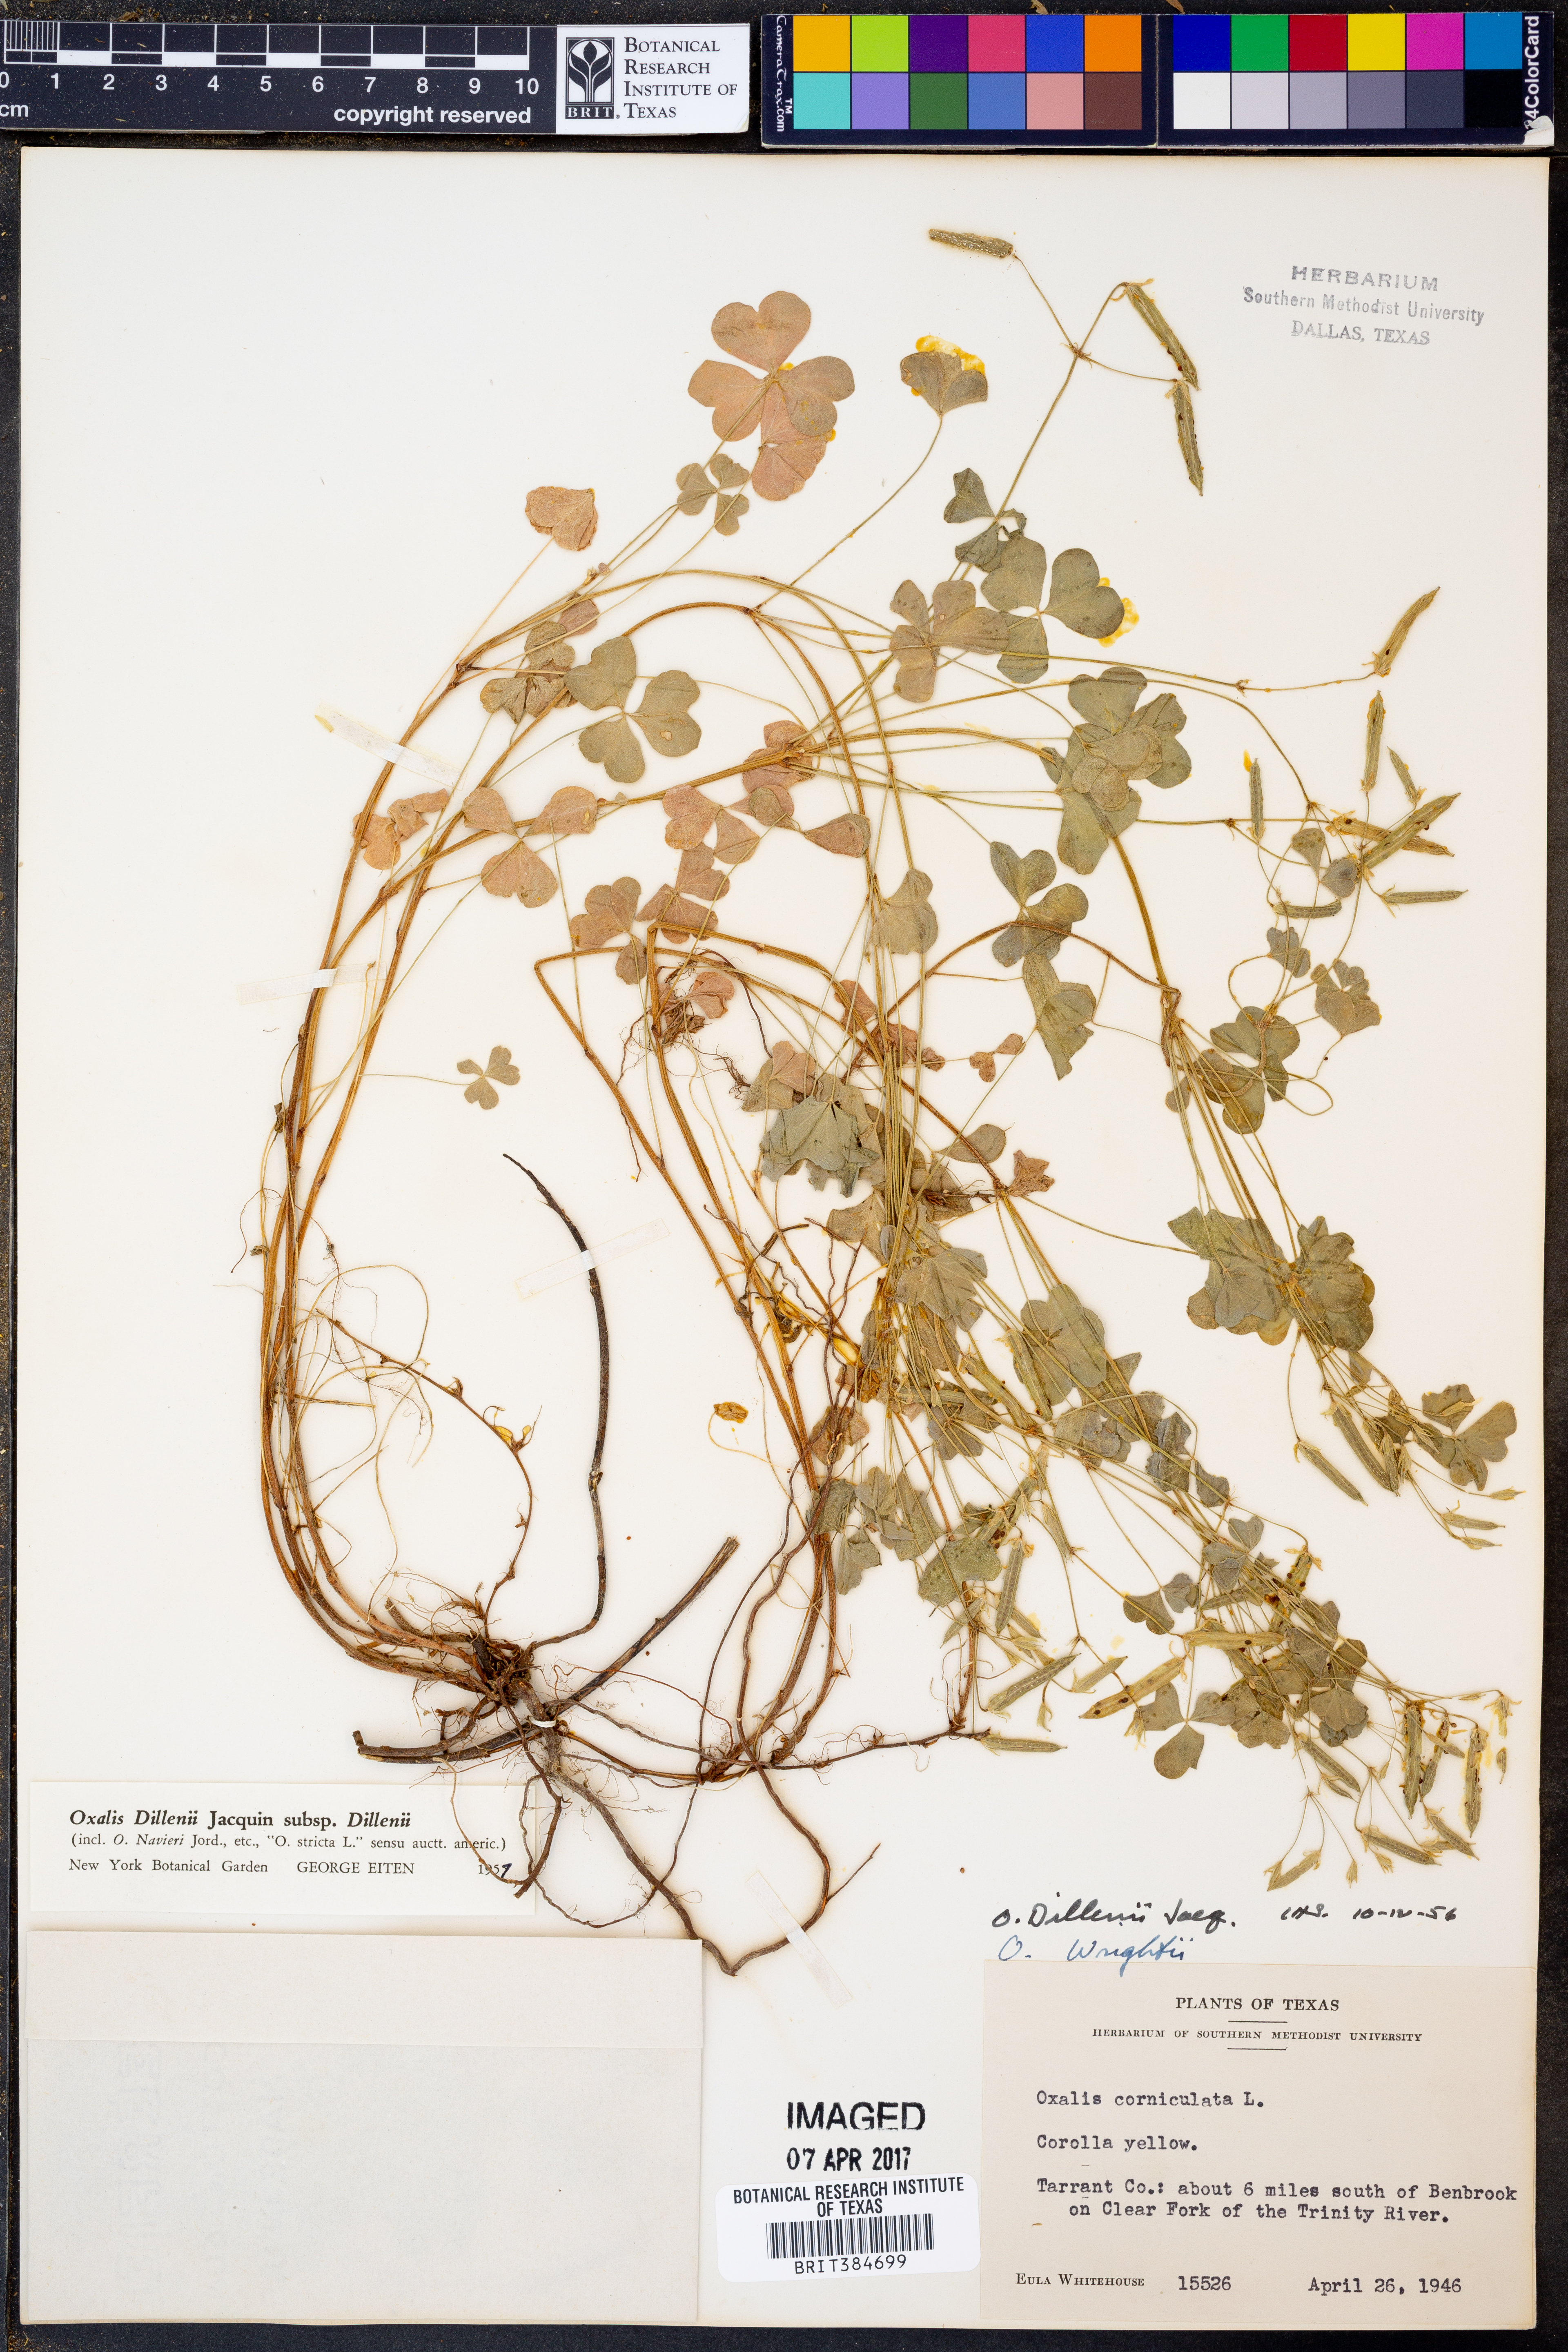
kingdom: Plantae
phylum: Tracheophyta
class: Magnoliopsida
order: Oxalidales
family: Oxalidaceae
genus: Oxalis
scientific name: Oxalis dillenii
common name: Sussex yellow-sorrel
